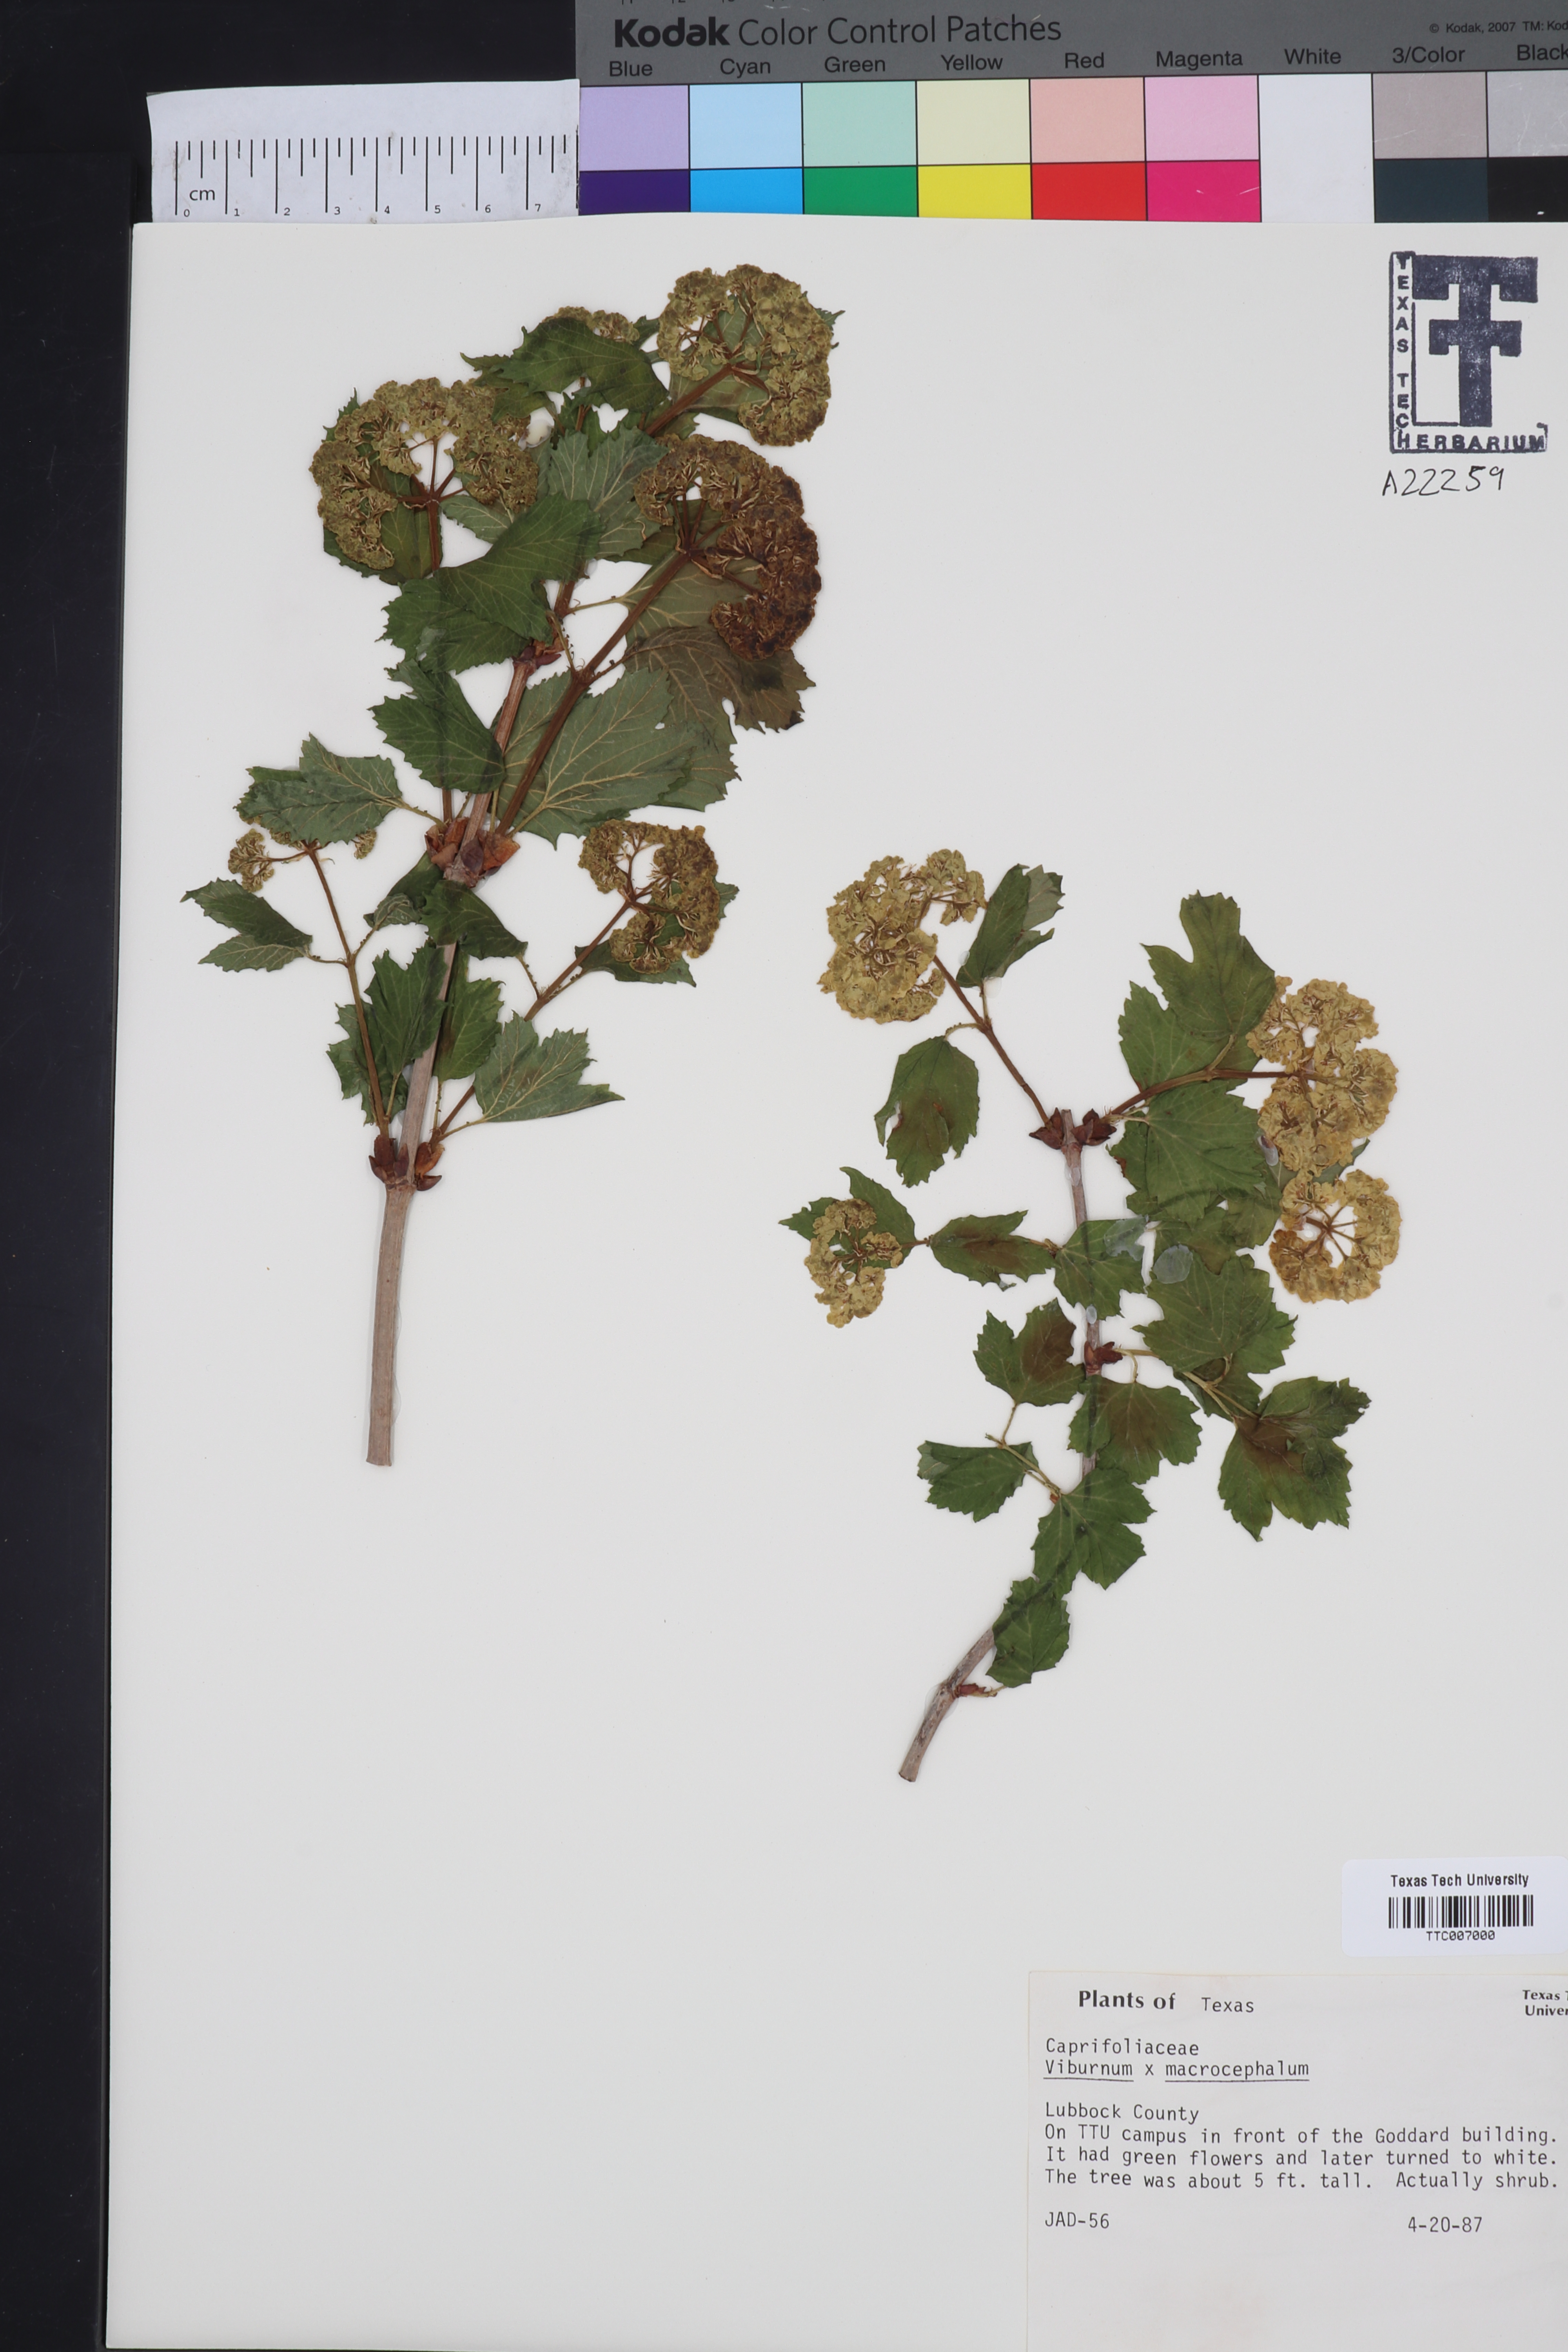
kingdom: Plantae
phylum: Tracheophyta
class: Magnoliopsida
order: Dipsacales
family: Viburnaceae
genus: Viburnum
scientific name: Viburnum macrocephalum
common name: Chinese snowball viburnum
